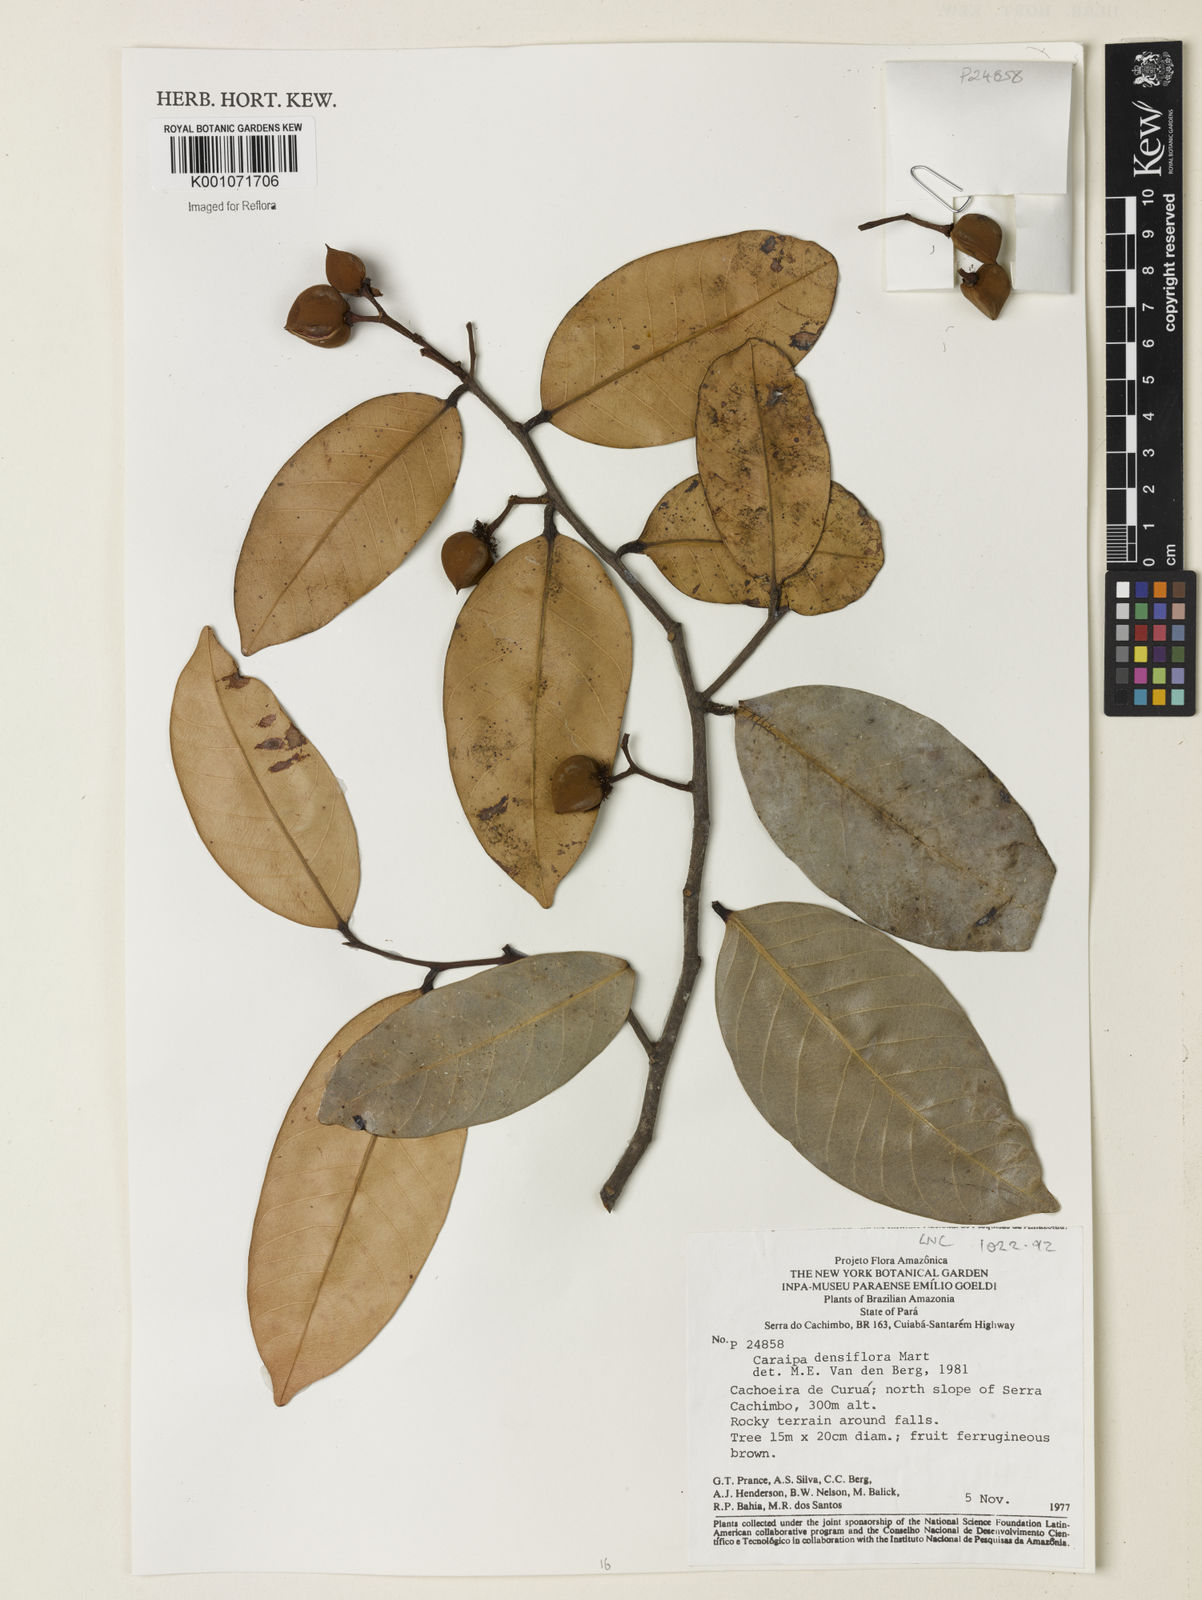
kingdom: Plantae
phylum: Tracheophyta
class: Magnoliopsida
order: Malpighiales
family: Calophyllaceae
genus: Caraipa
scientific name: Caraipa densifolia
